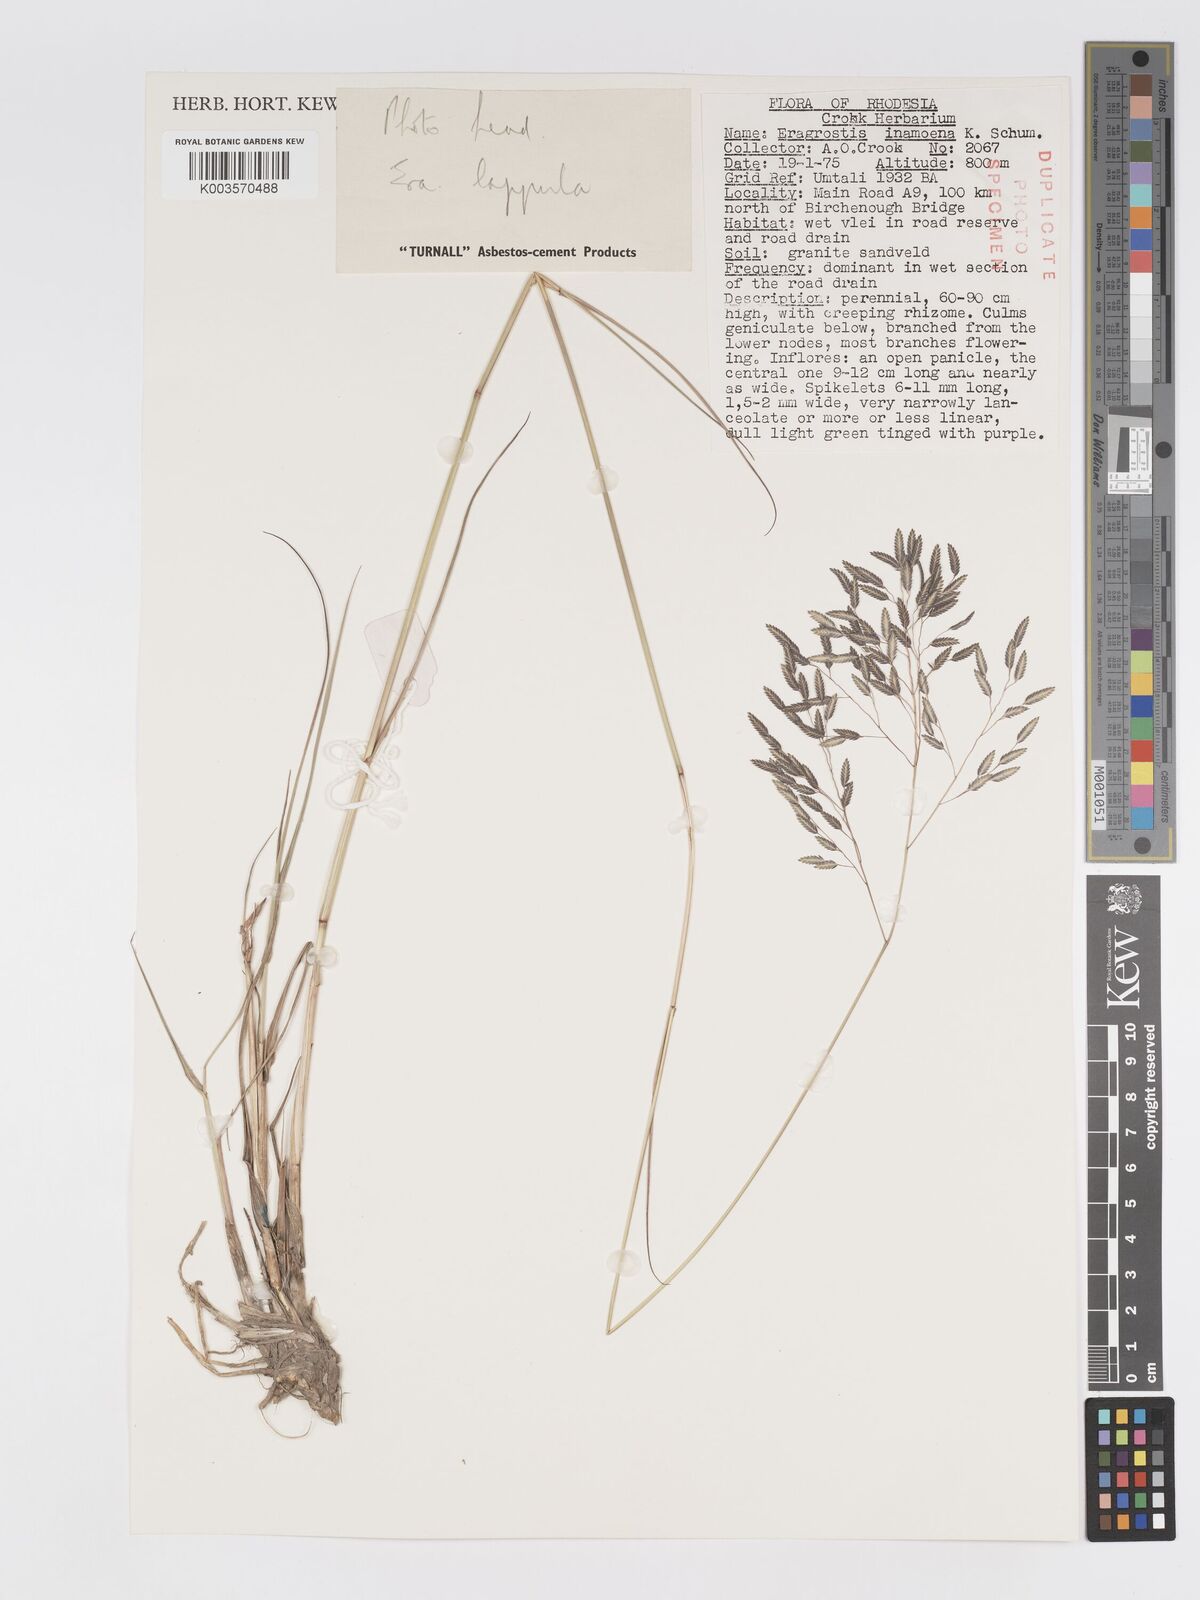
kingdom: Plantae
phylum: Tracheophyta
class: Liliopsida
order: Poales
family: Poaceae
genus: Eragrostis
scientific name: Eragrostis inamoena
